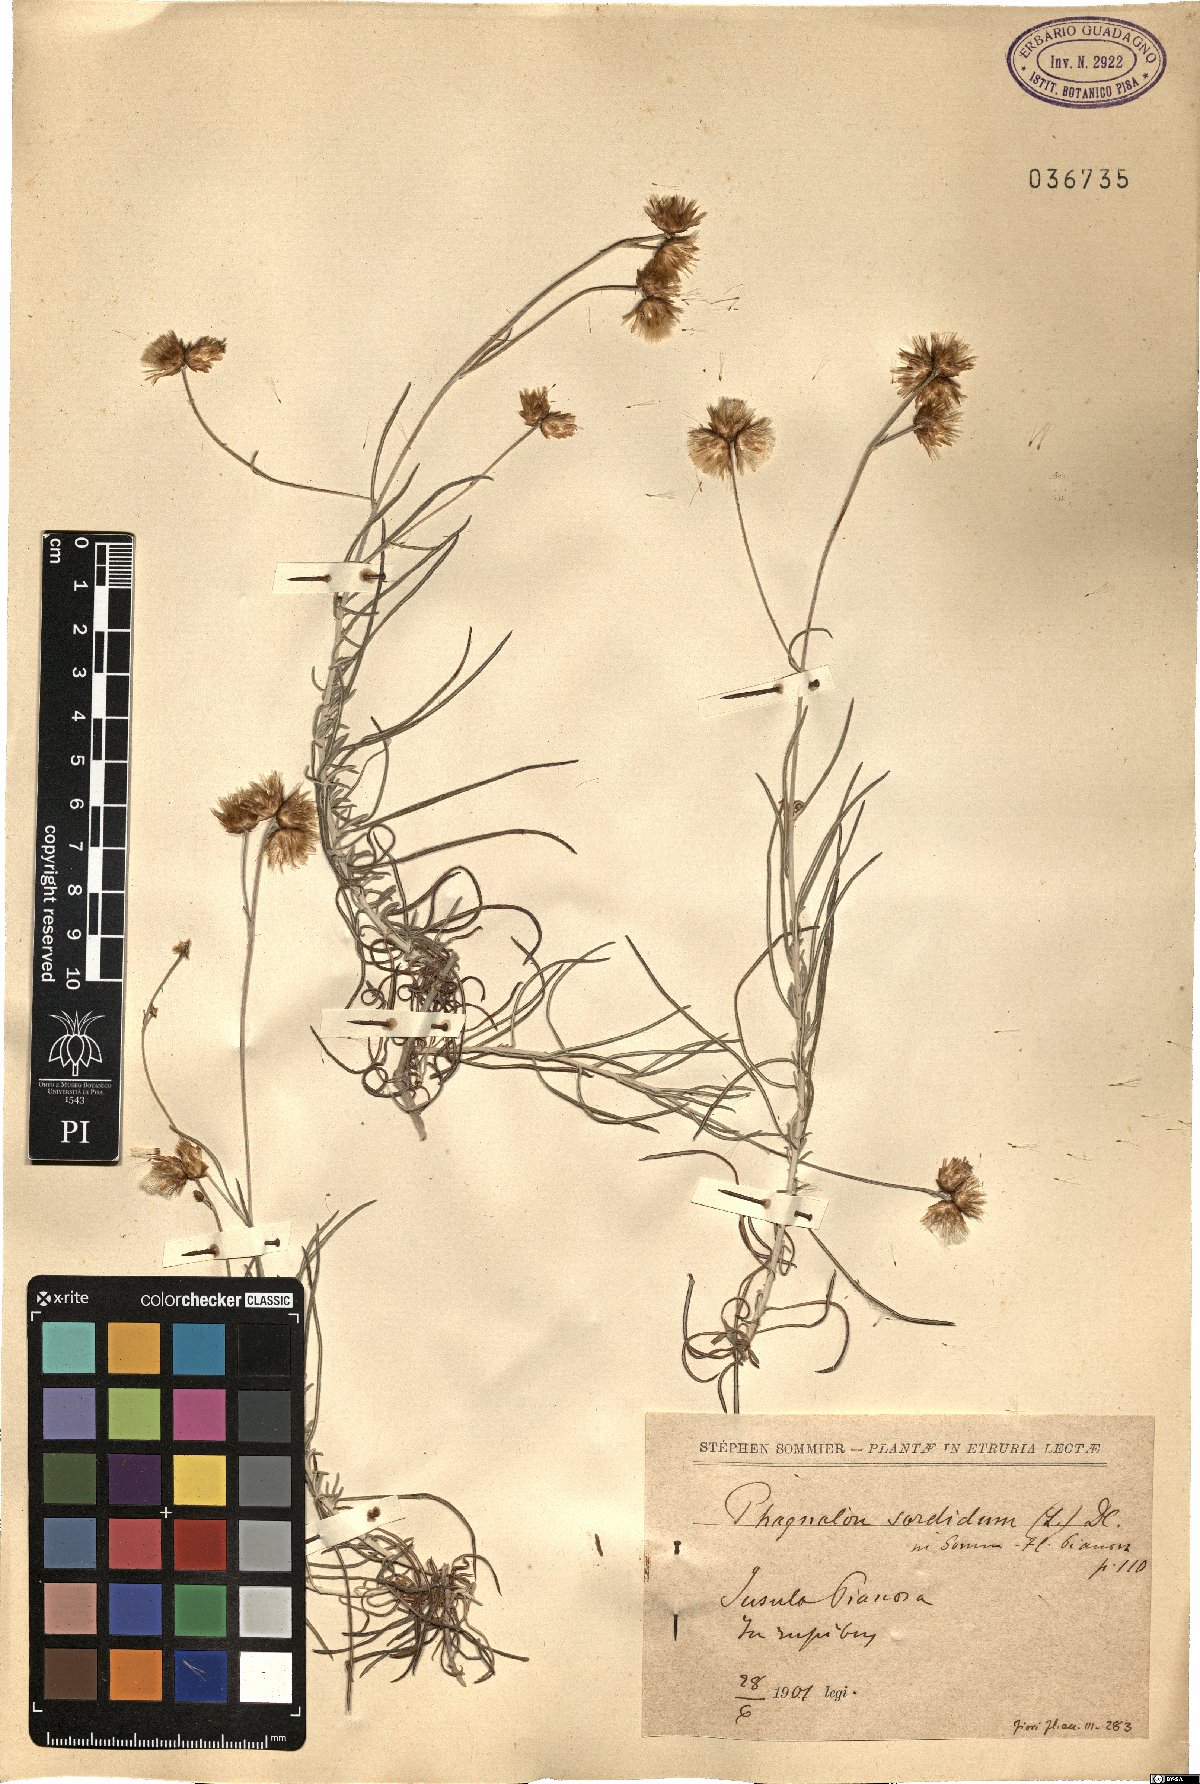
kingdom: Plantae
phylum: Tracheophyta
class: Magnoliopsida
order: Asterales
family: Asteraceae
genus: Phagnalon
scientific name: Phagnalon sordidum
